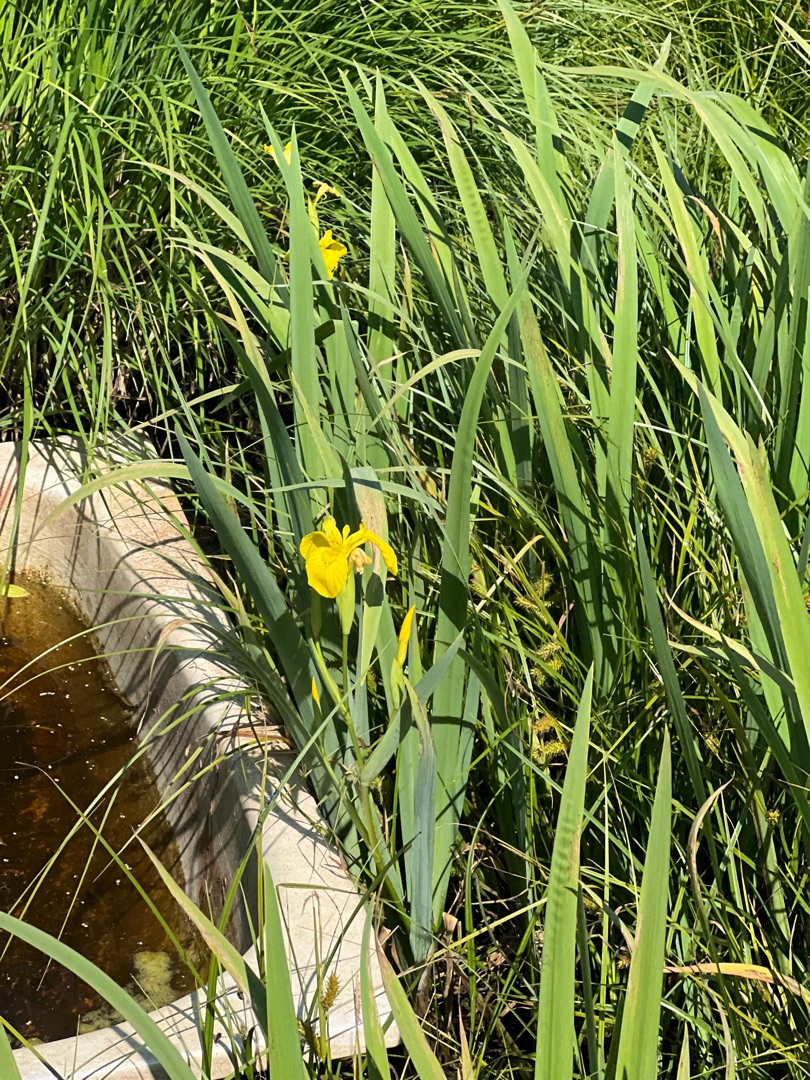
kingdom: Plantae
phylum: Tracheophyta
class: Liliopsida
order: Asparagales
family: Iridaceae
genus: Iris
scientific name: Iris pseudacorus
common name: Gul iris
